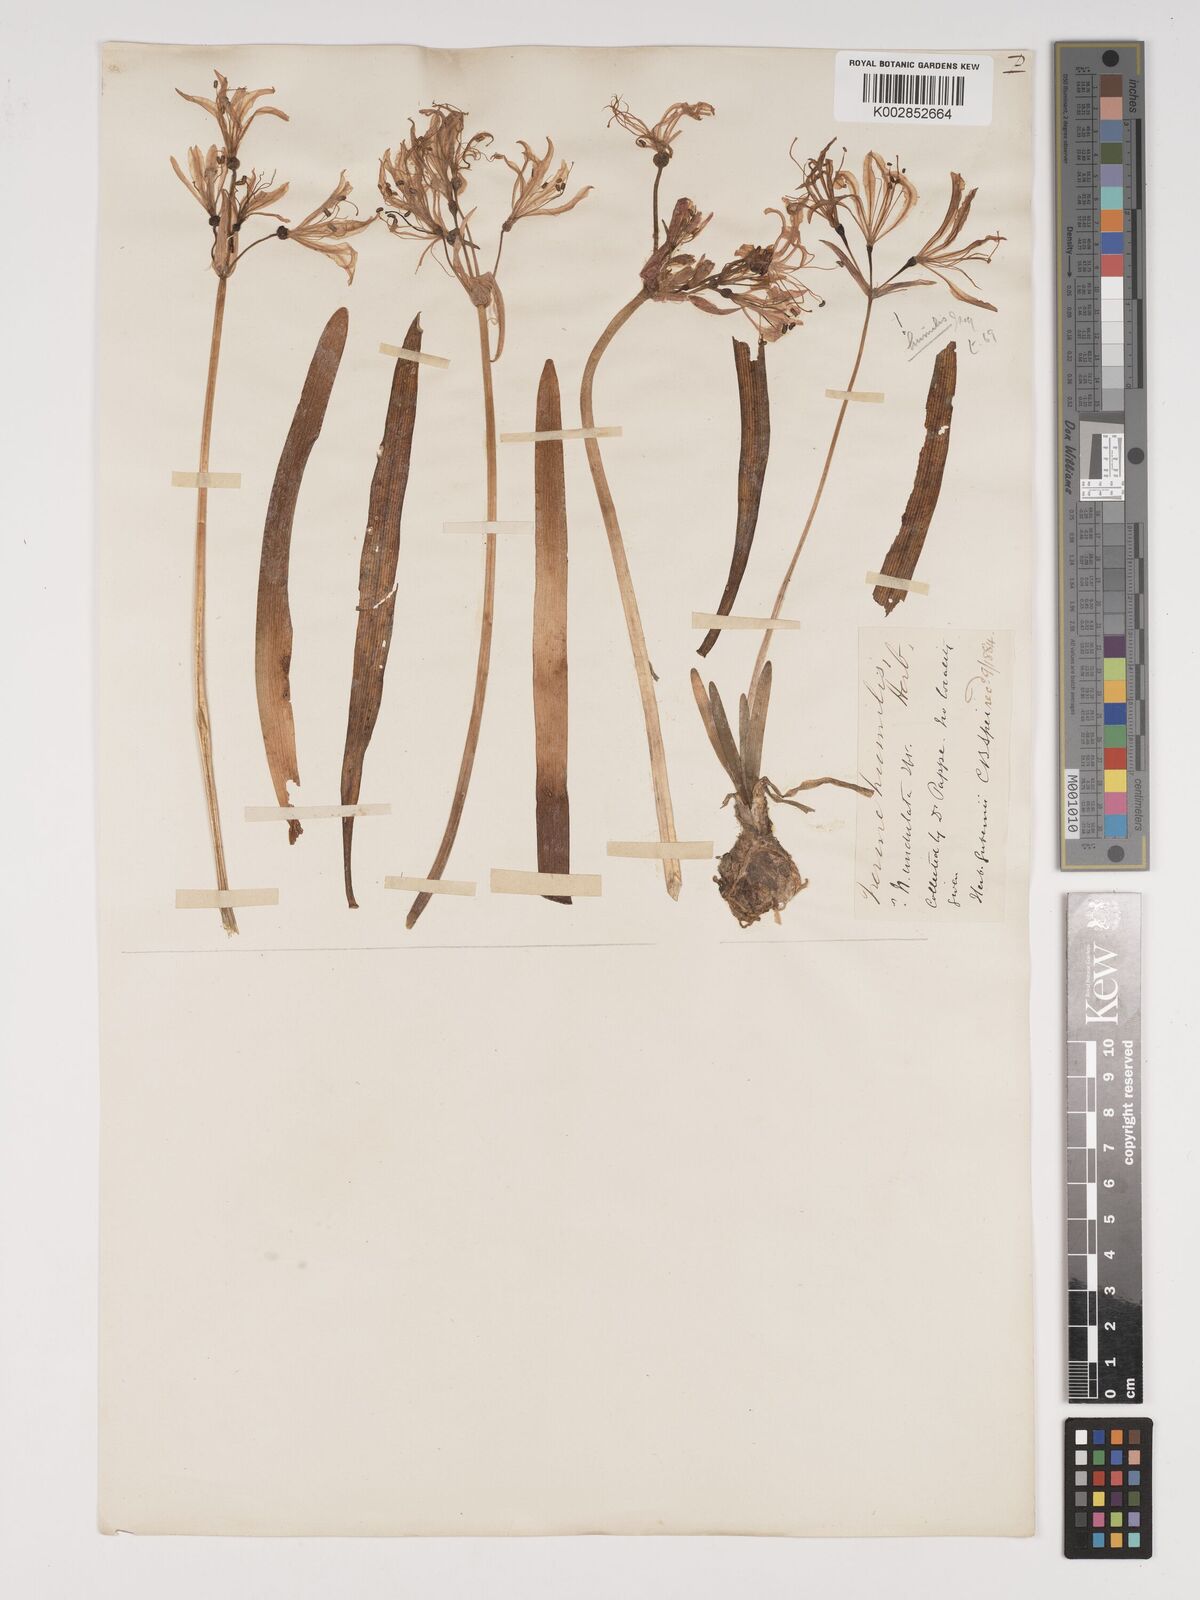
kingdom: Plantae
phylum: Tracheophyta
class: Liliopsida
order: Asparagales
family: Amaryllidaceae
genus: Nerine
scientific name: Nerine humilis
